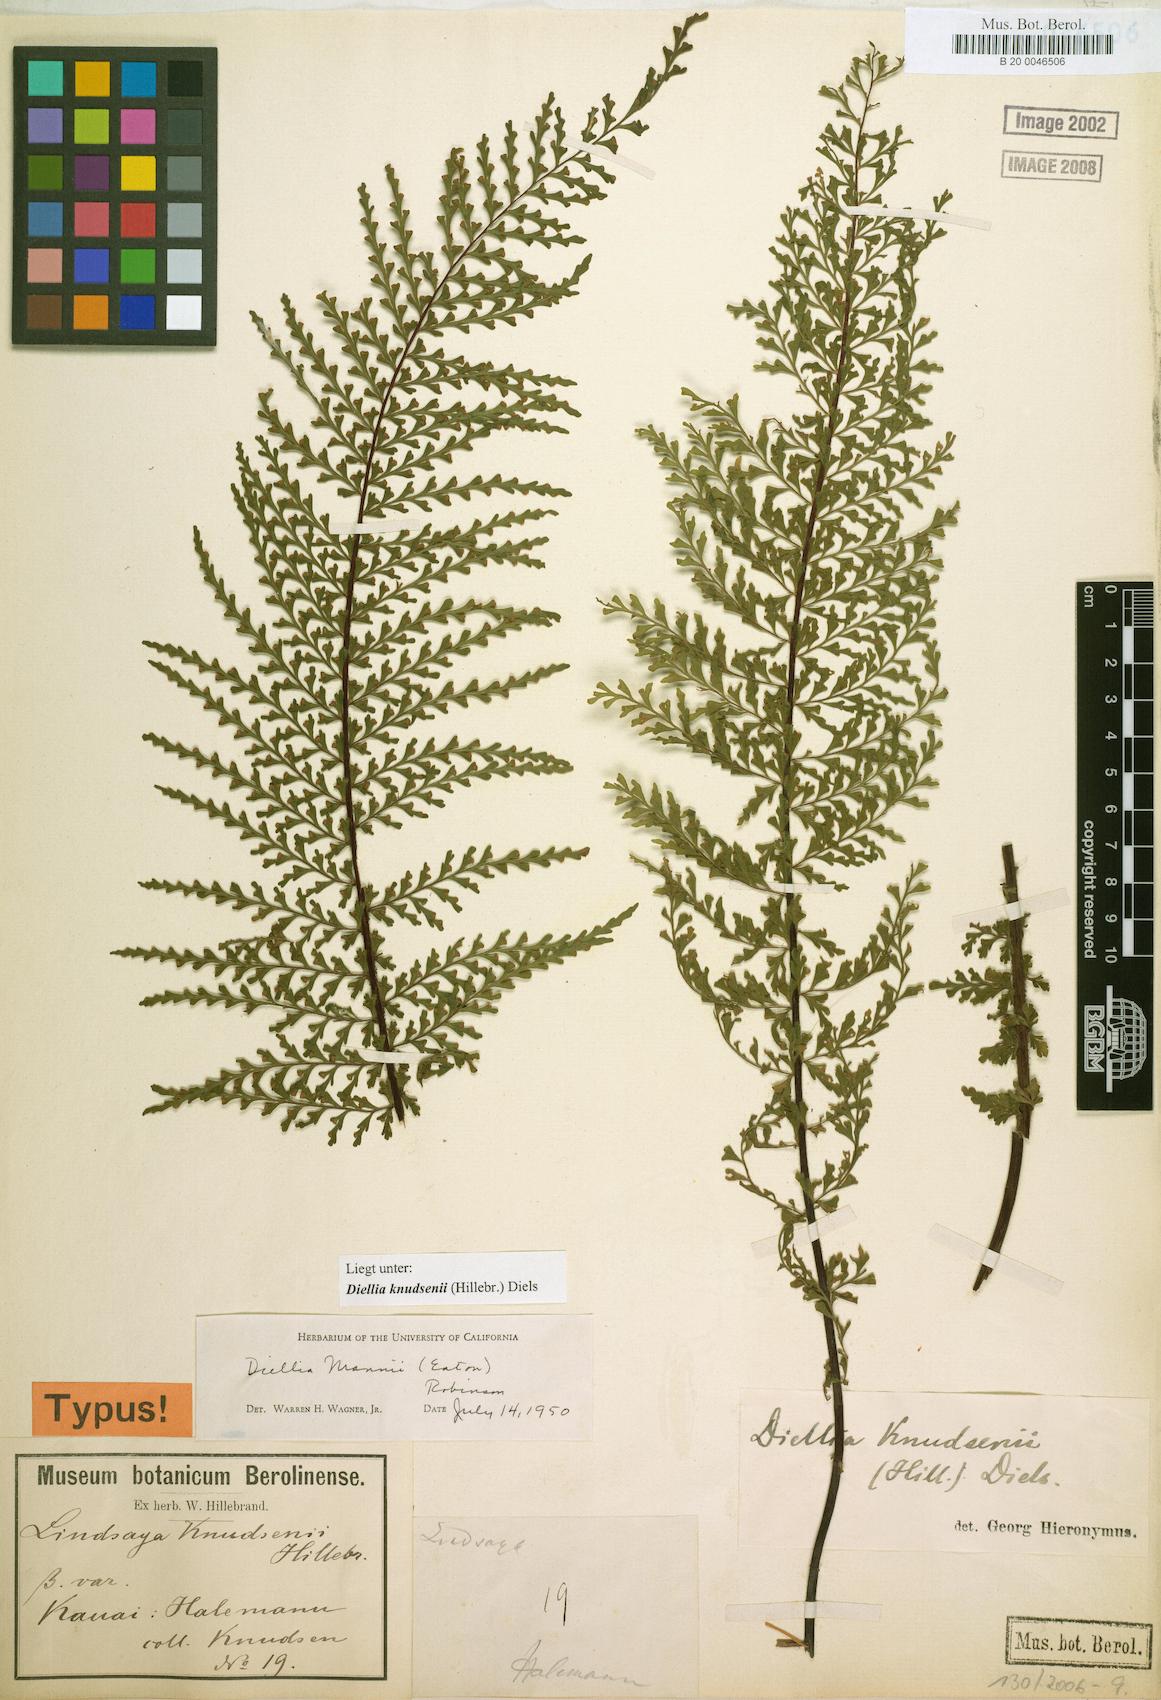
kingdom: Plantae
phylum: Tracheophyta
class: Polypodiopsida
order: Polypodiales
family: Aspleniaceae
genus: Asplenium
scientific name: Asplenium dielmannii
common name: Mann's island spleenwort
